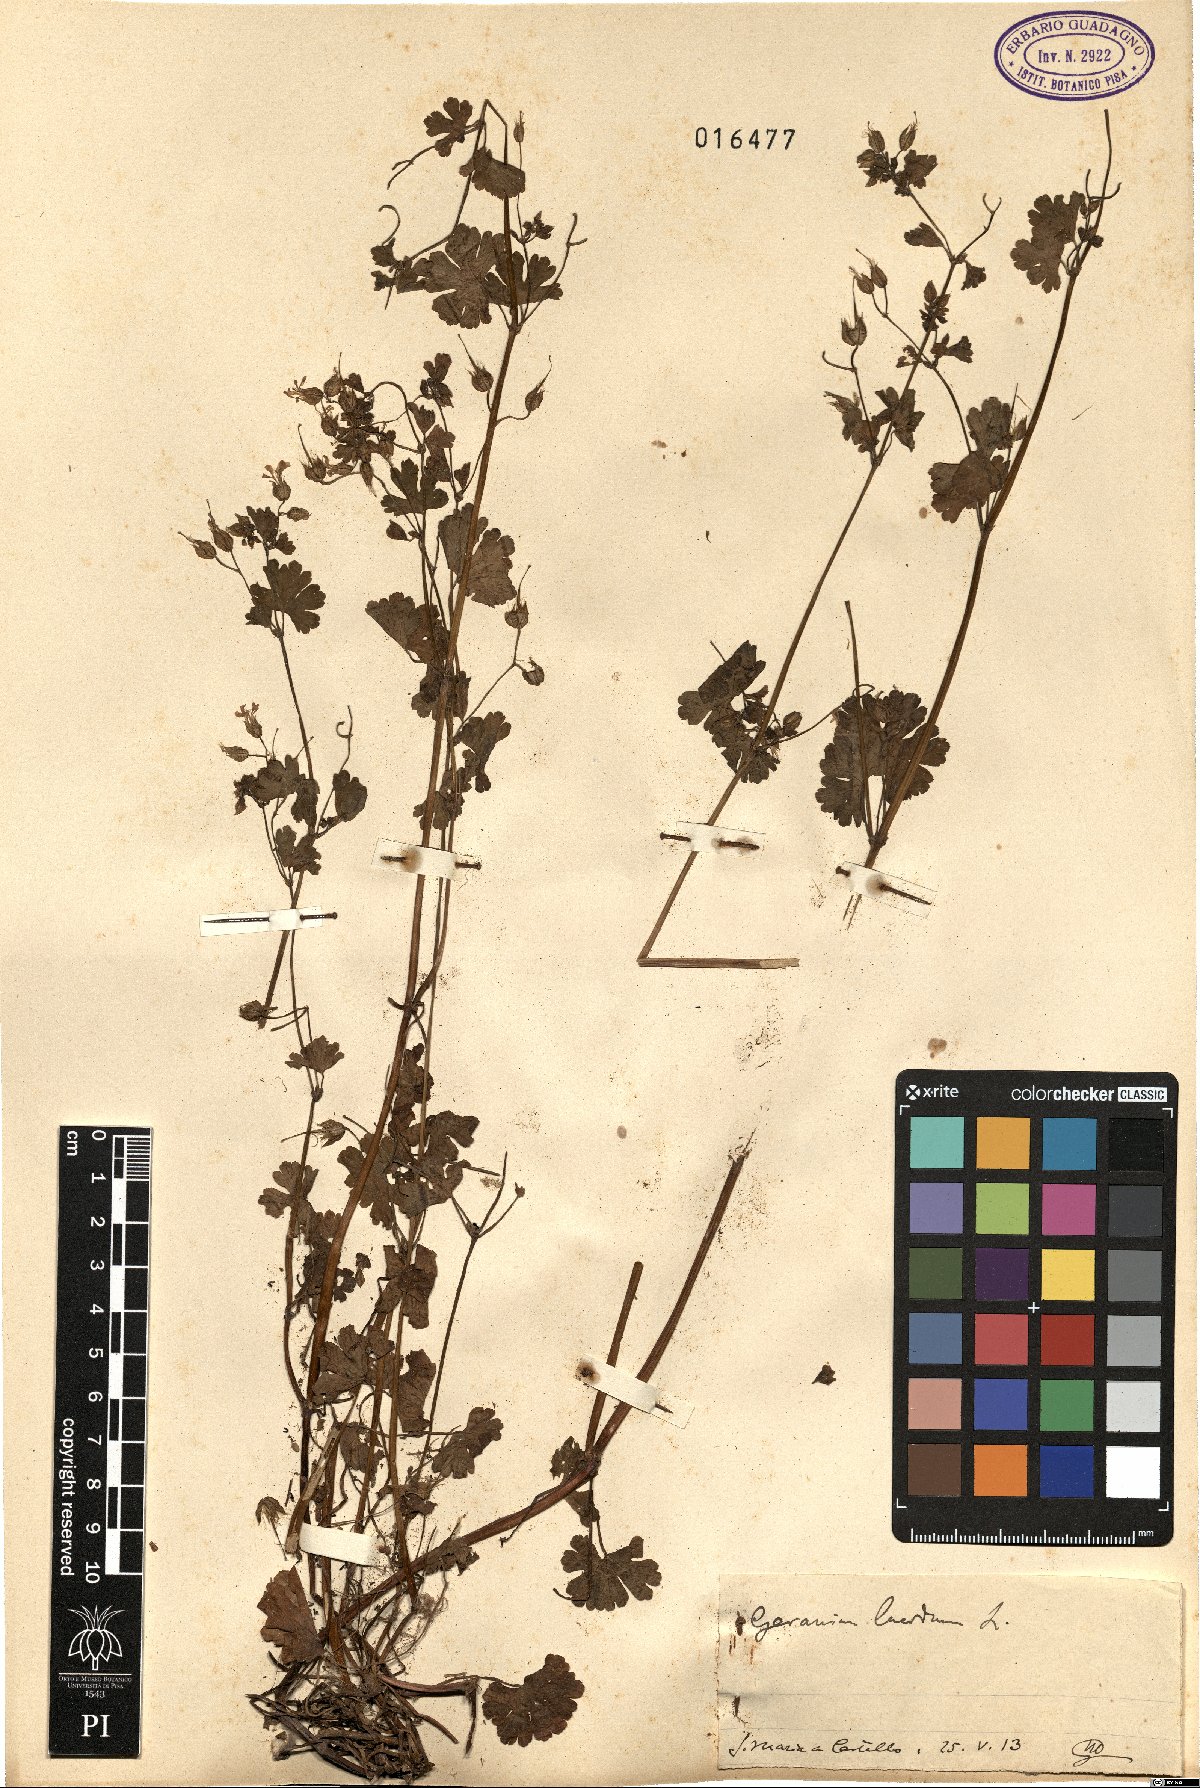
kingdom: Plantae
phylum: Tracheophyta
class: Magnoliopsida
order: Geraniales
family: Geraniaceae
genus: Geranium
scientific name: Geranium lucidum
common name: Shining crane's-bill
